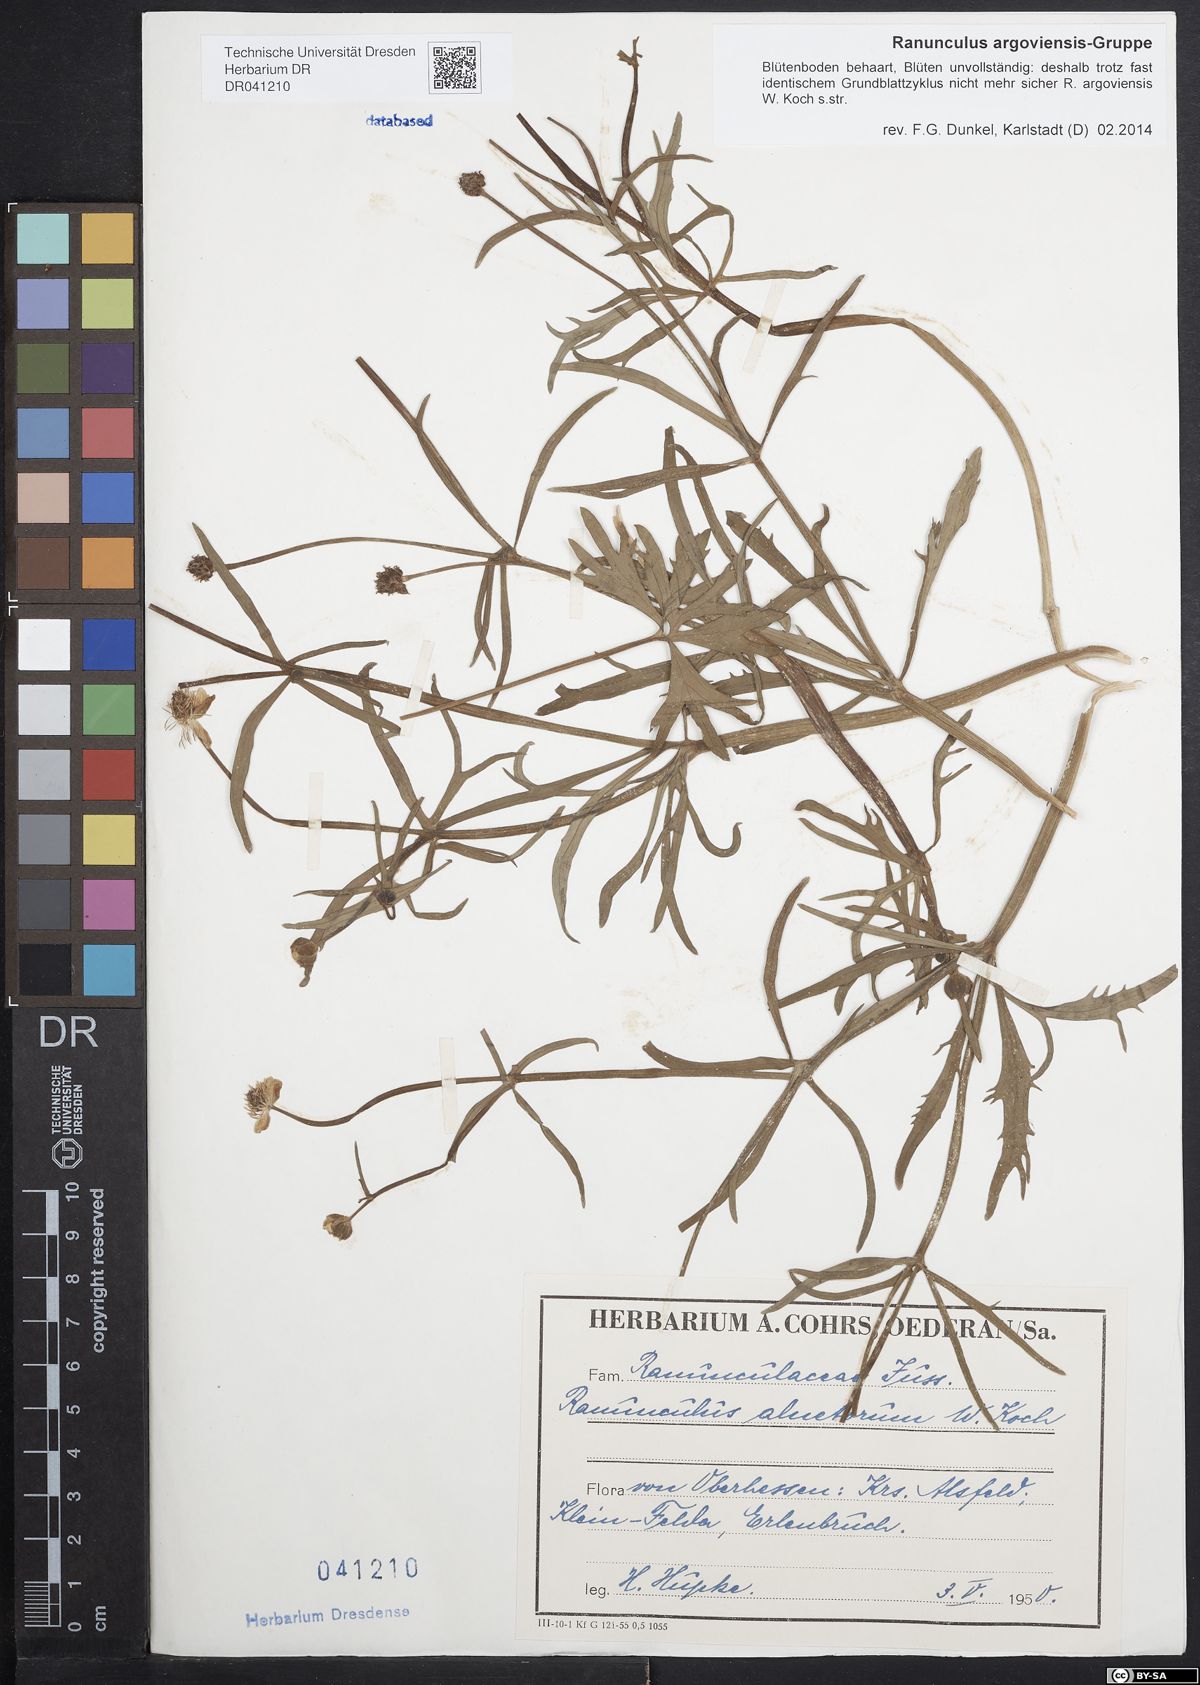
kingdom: Plantae
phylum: Tracheophyta
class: Magnoliopsida
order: Ranunculales
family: Ranunculaceae
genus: Ranunculus
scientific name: Ranunculus argoviensis
